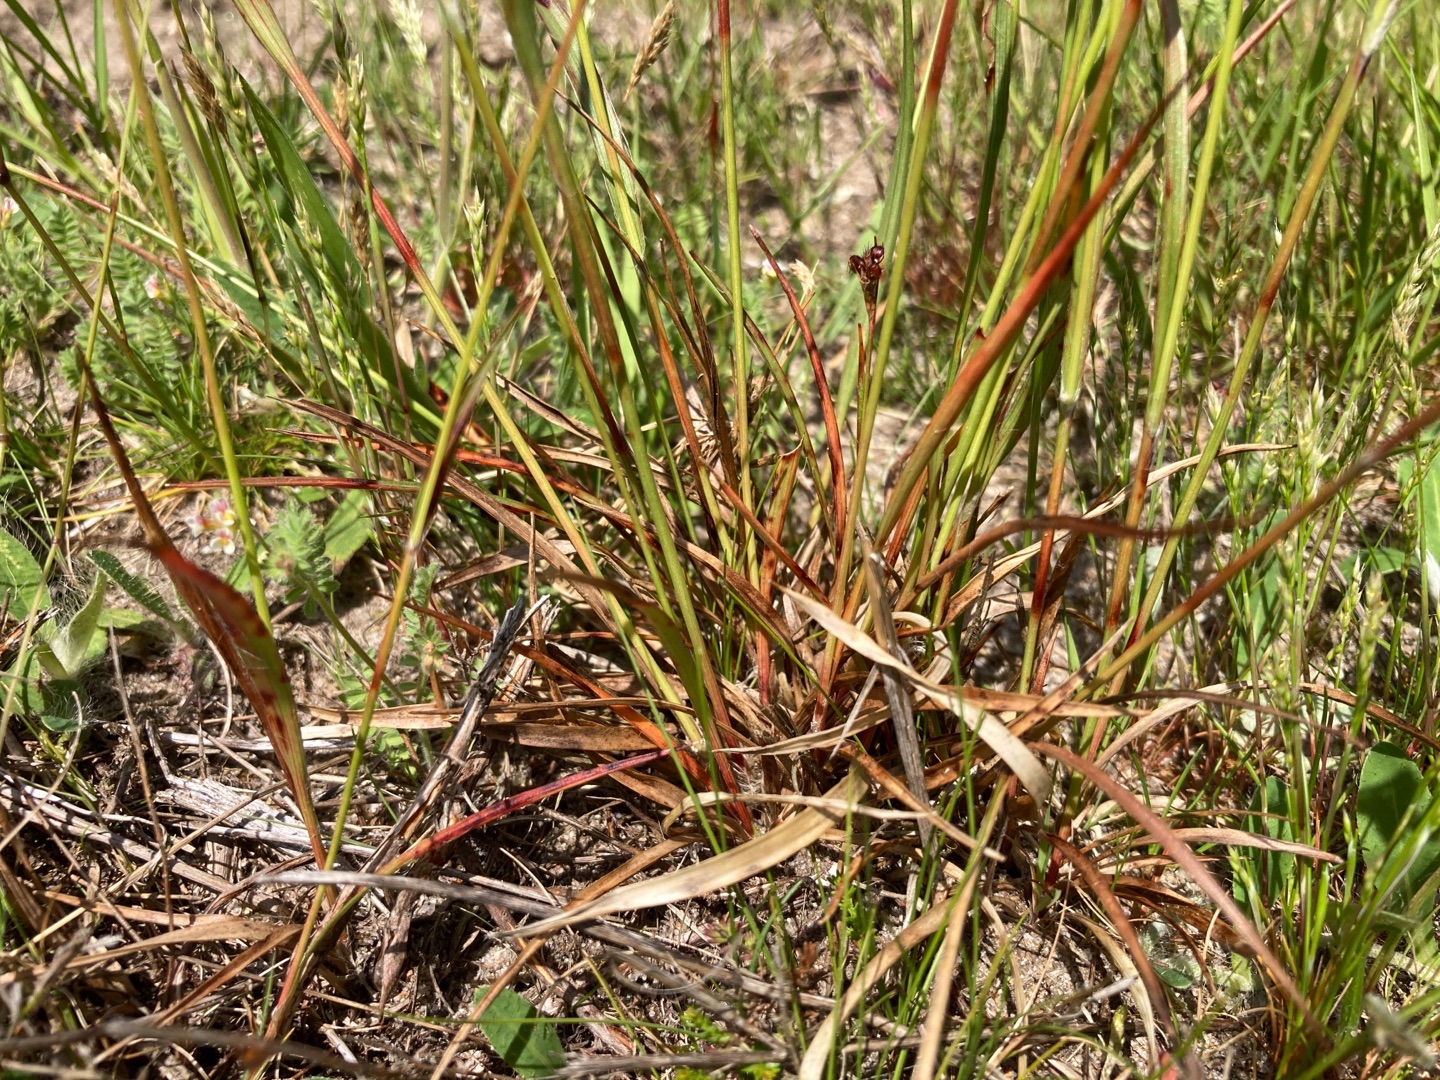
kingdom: Plantae
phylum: Tracheophyta
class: Liliopsida
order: Poales
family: Juncaceae
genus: Luzula
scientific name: Luzula multiflora
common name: Mangeblomstret frytle
